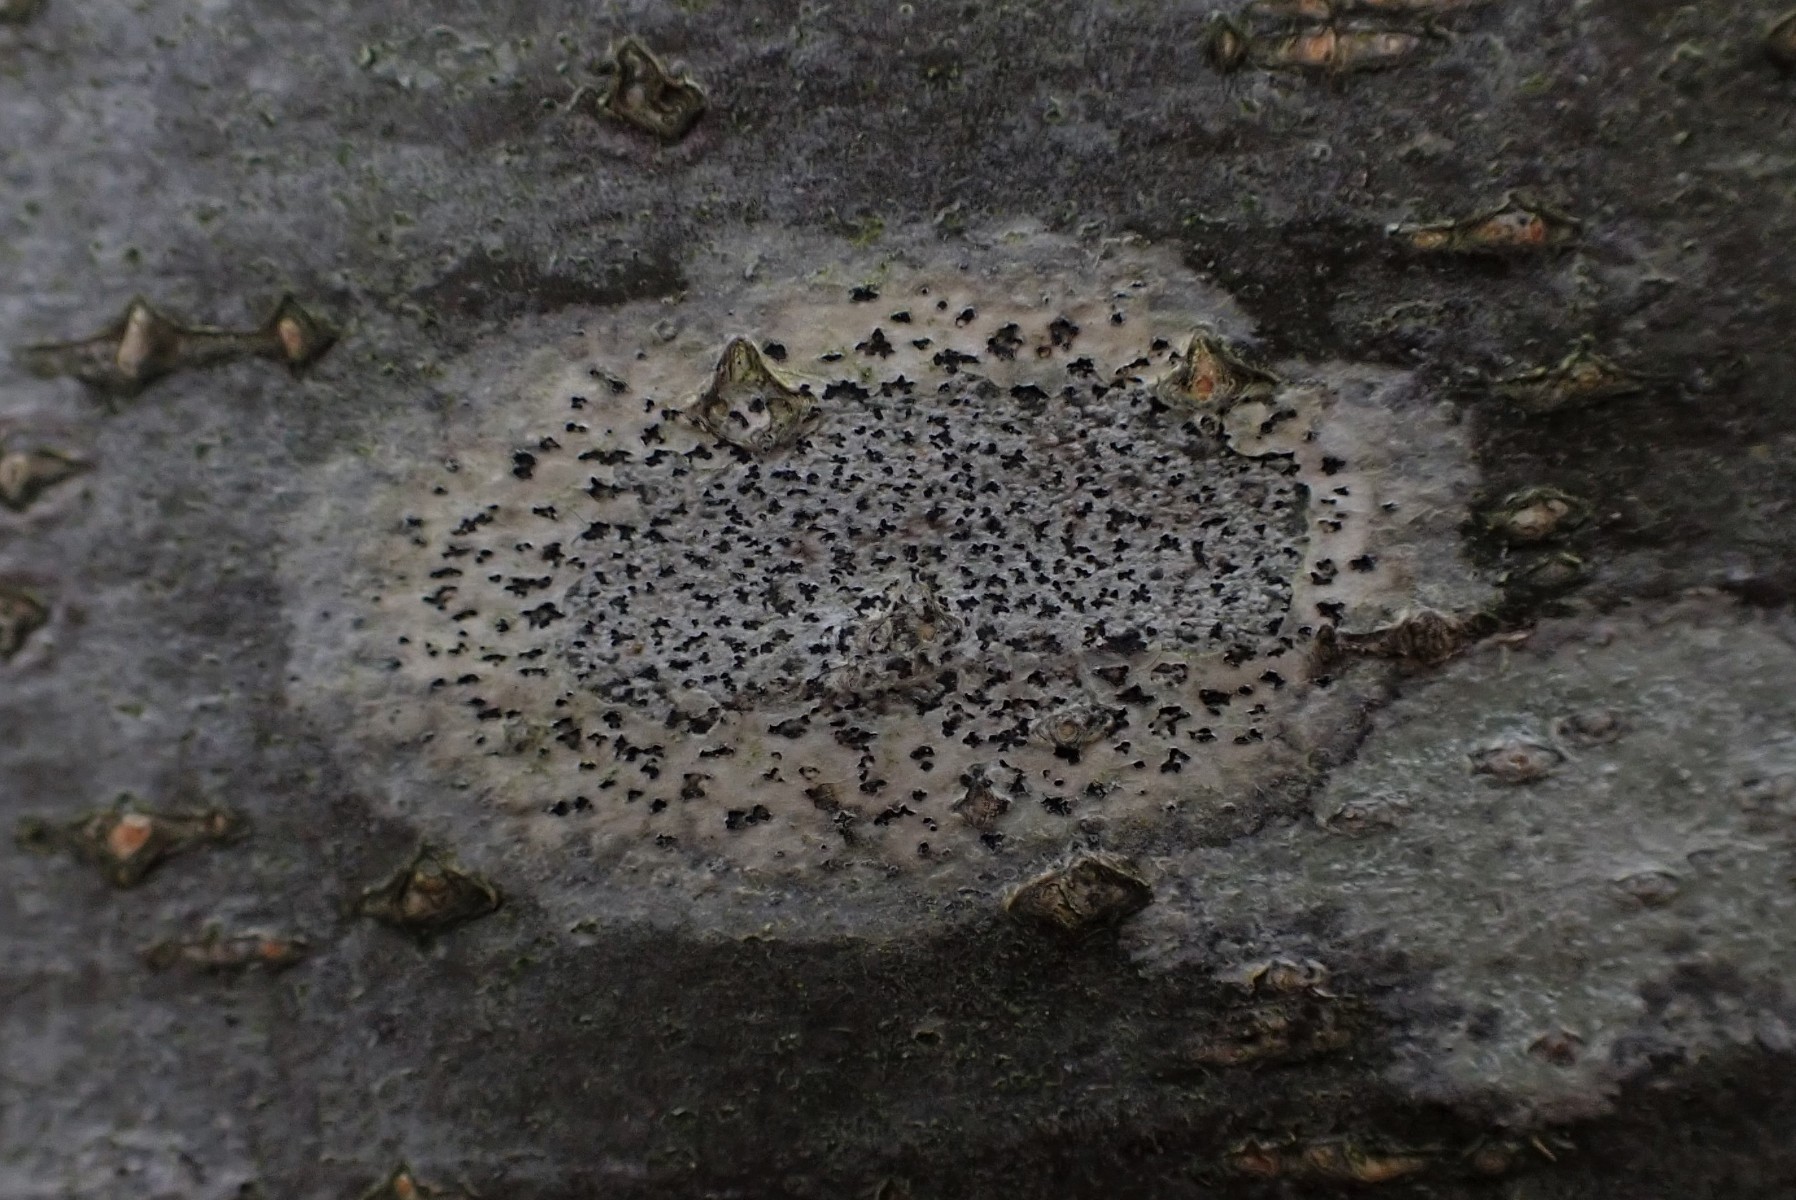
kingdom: Fungi
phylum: Ascomycota
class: Arthoniomycetes
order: Arthoniales
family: Arthoniaceae
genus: Arthonia
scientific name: Arthonia radiata
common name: stjerne-pletlav
